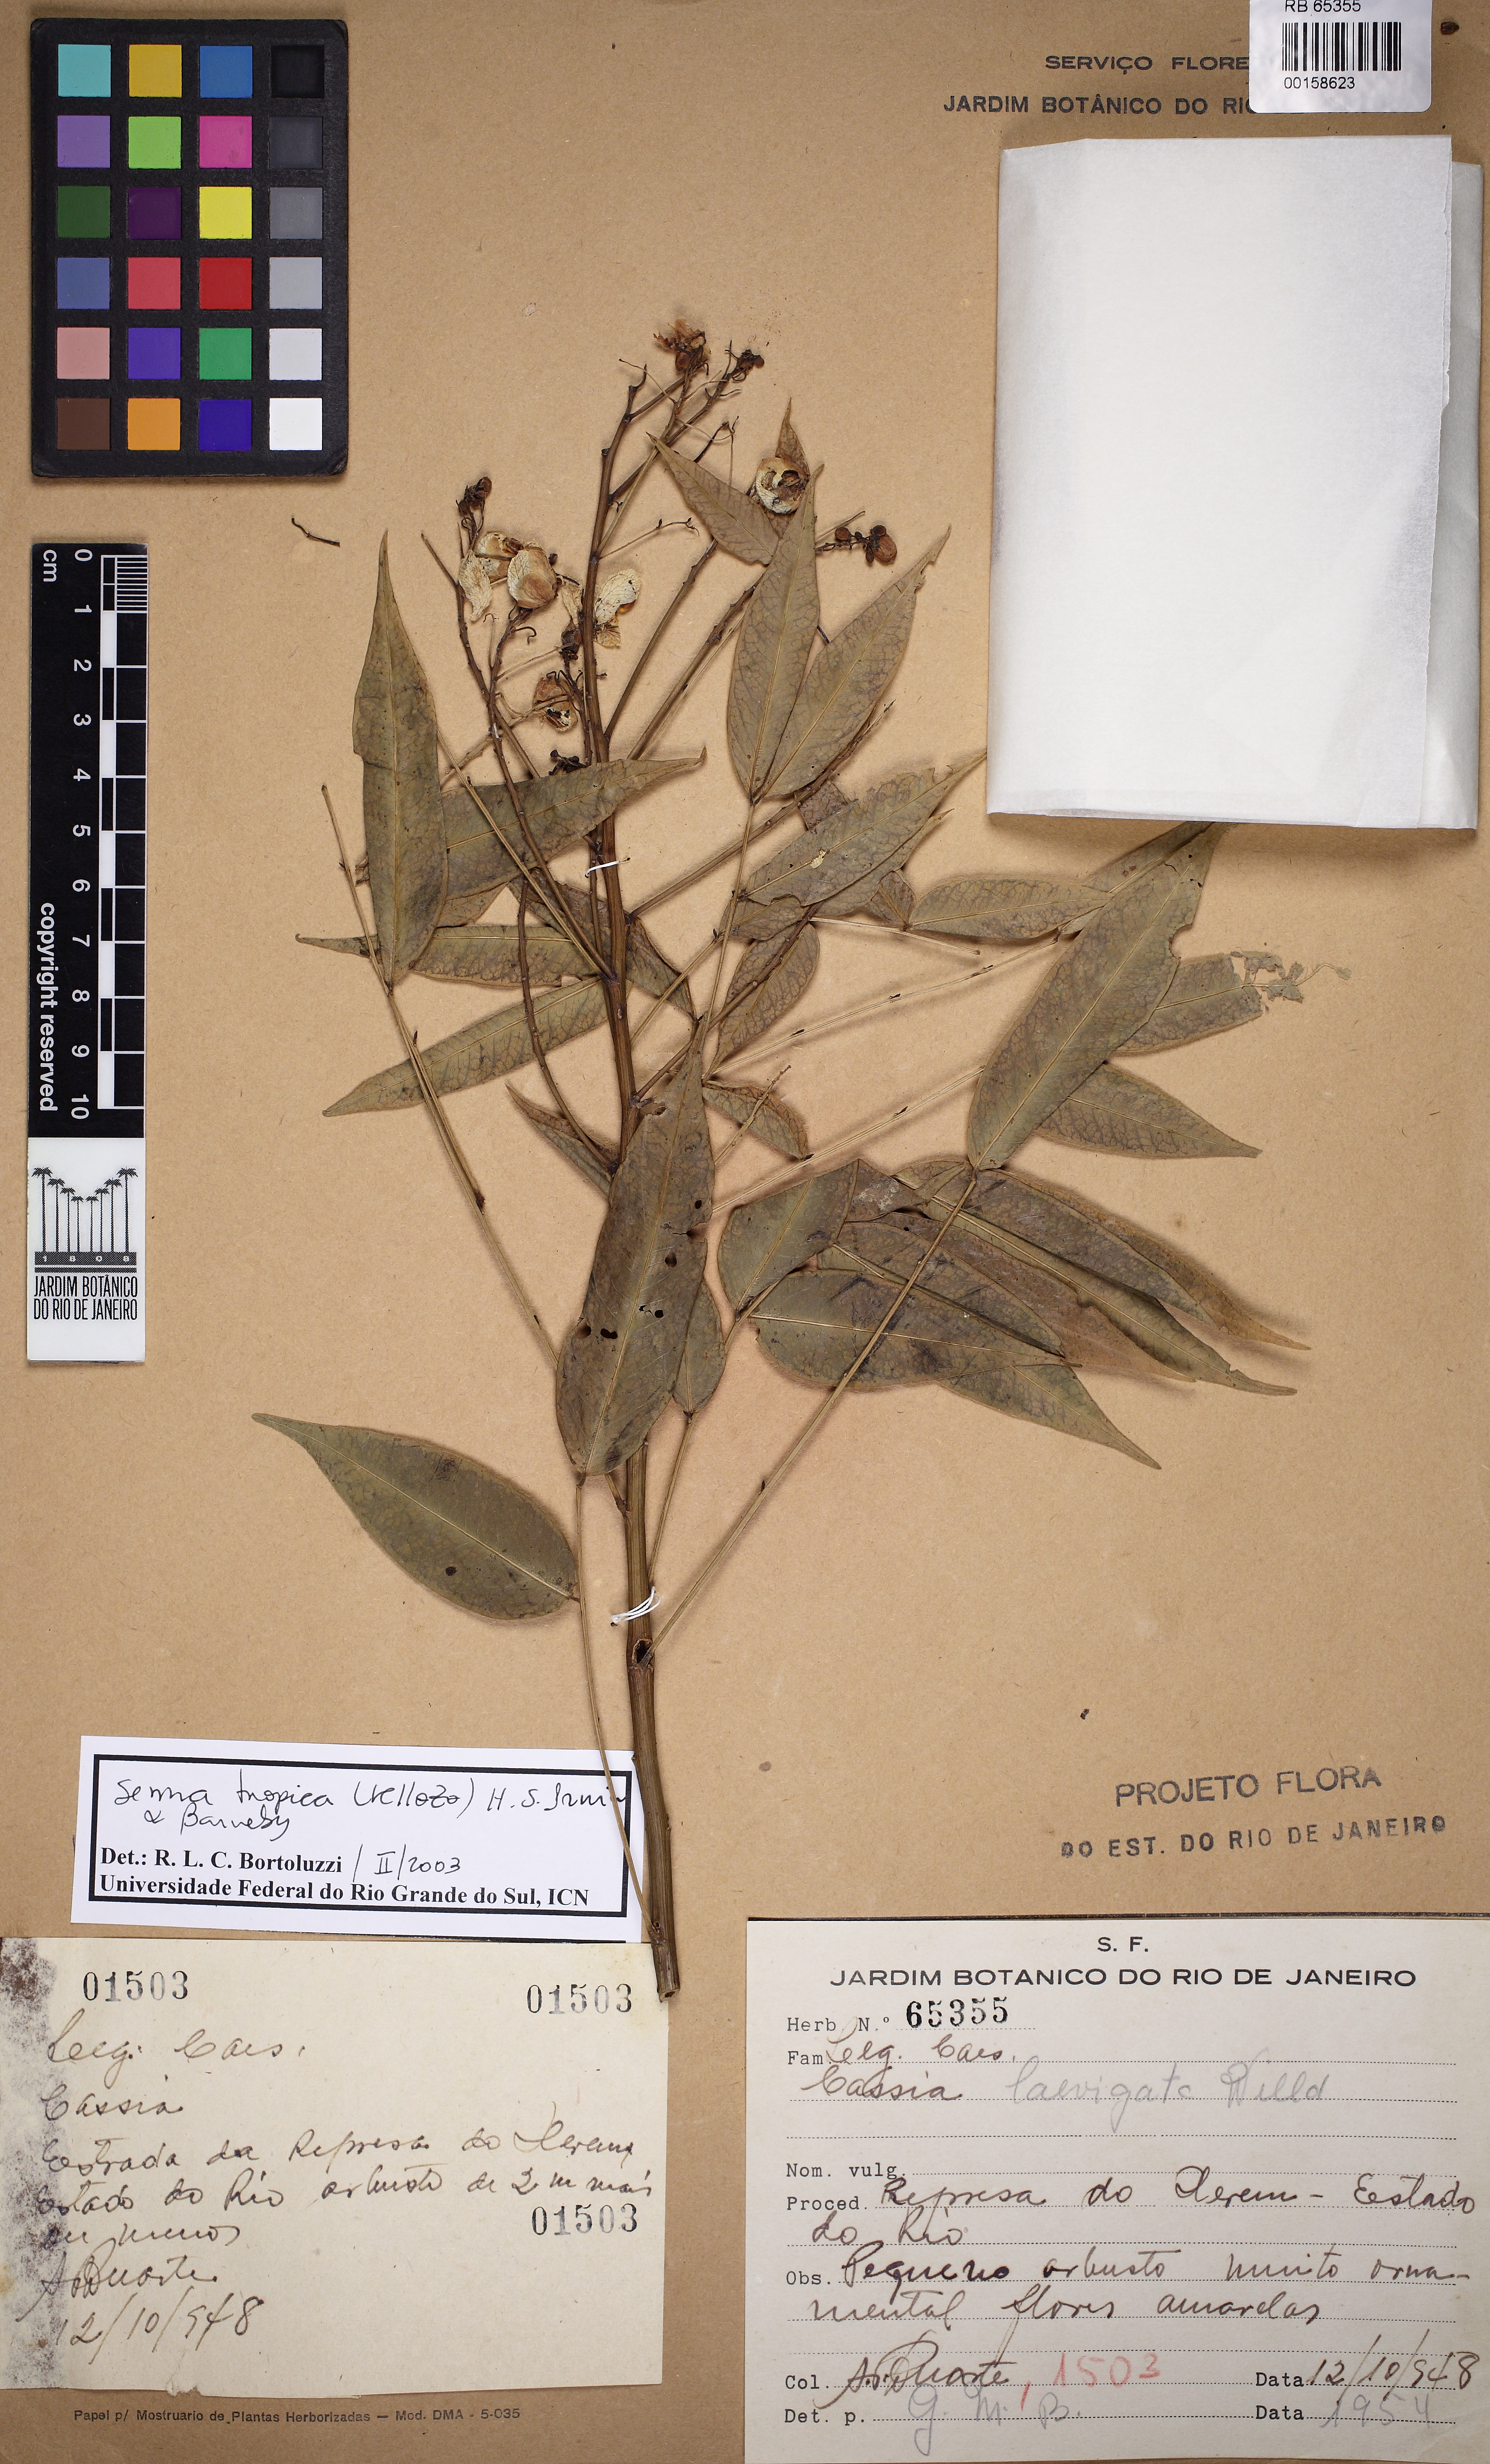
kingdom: Plantae
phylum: Tracheophyta
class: Magnoliopsida
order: Fabales
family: Fabaceae
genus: Senna
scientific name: Senna tropica
